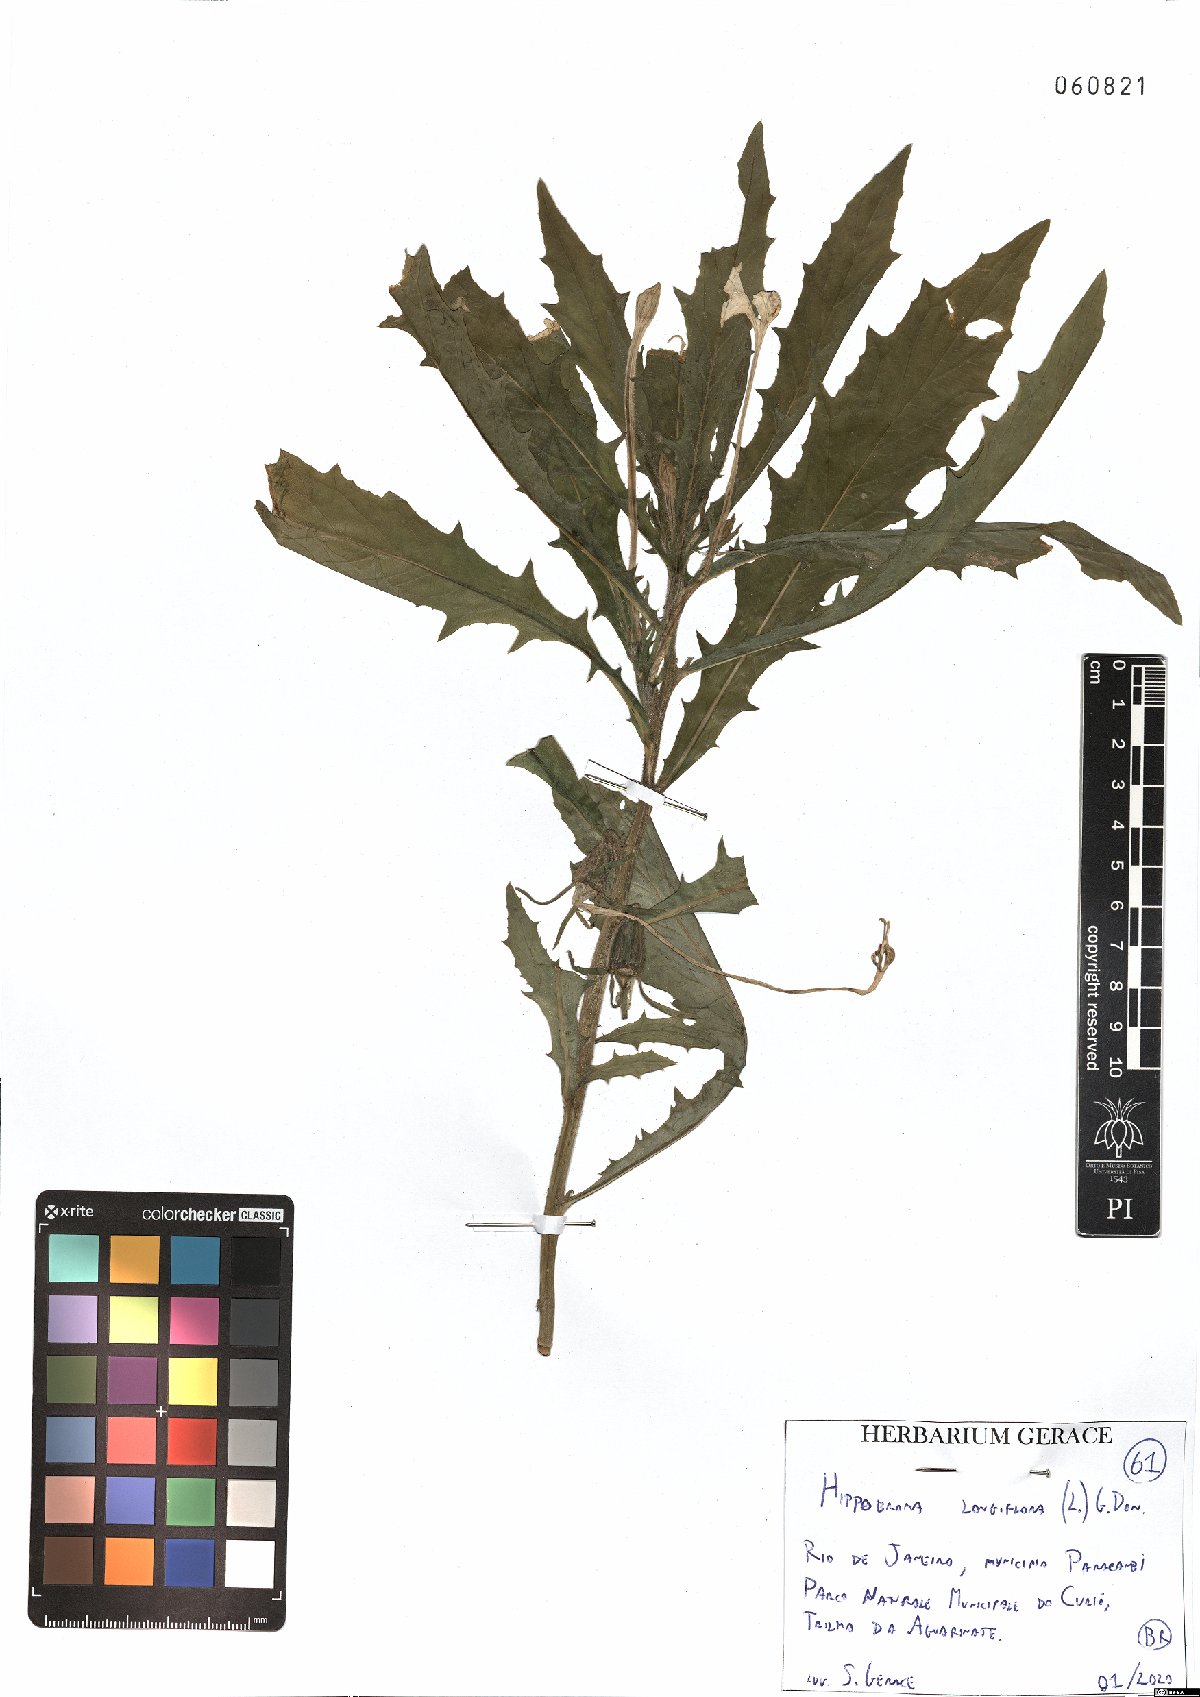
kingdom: Plantae
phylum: Tracheophyta
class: Magnoliopsida
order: Asterales
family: Campanulaceae
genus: Hippobroma
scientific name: Hippobroma longiflora
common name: Madamfate
